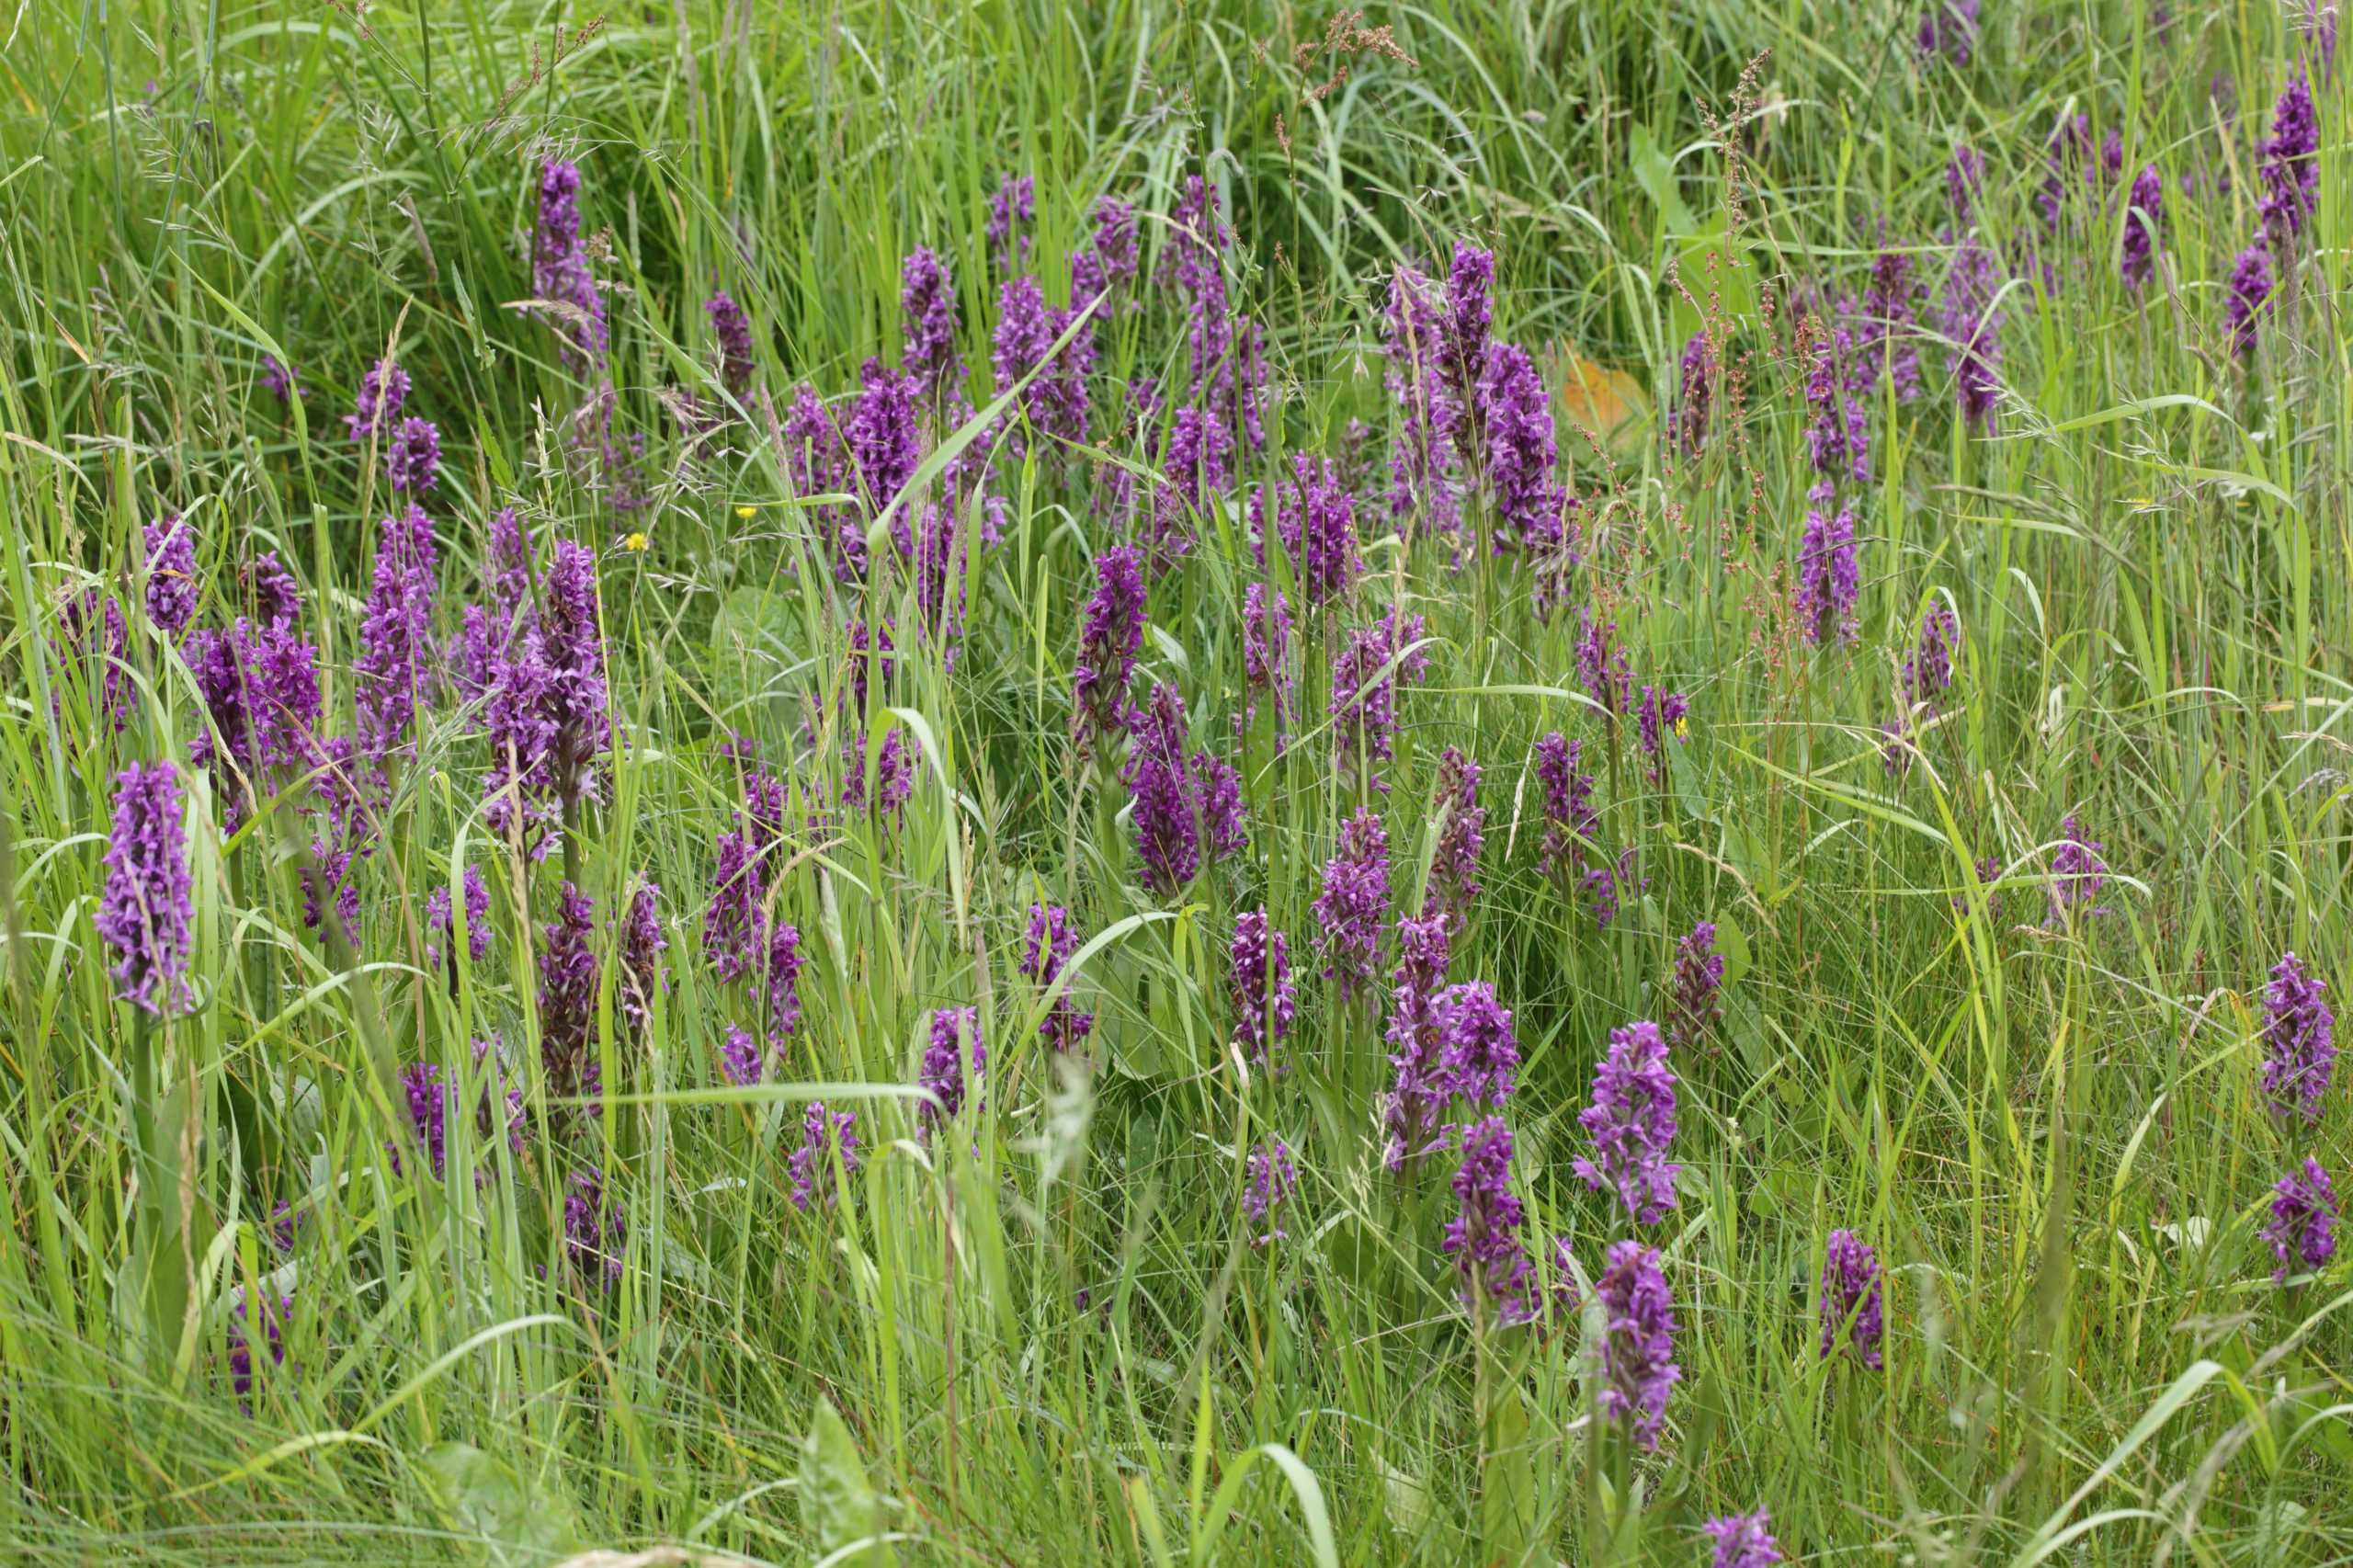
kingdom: Plantae
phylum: Tracheophyta
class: Liliopsida
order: Asparagales
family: Orchidaceae
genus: Dactylorhiza
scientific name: Dactylorhiza majalis
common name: Maj-gøgeurt
